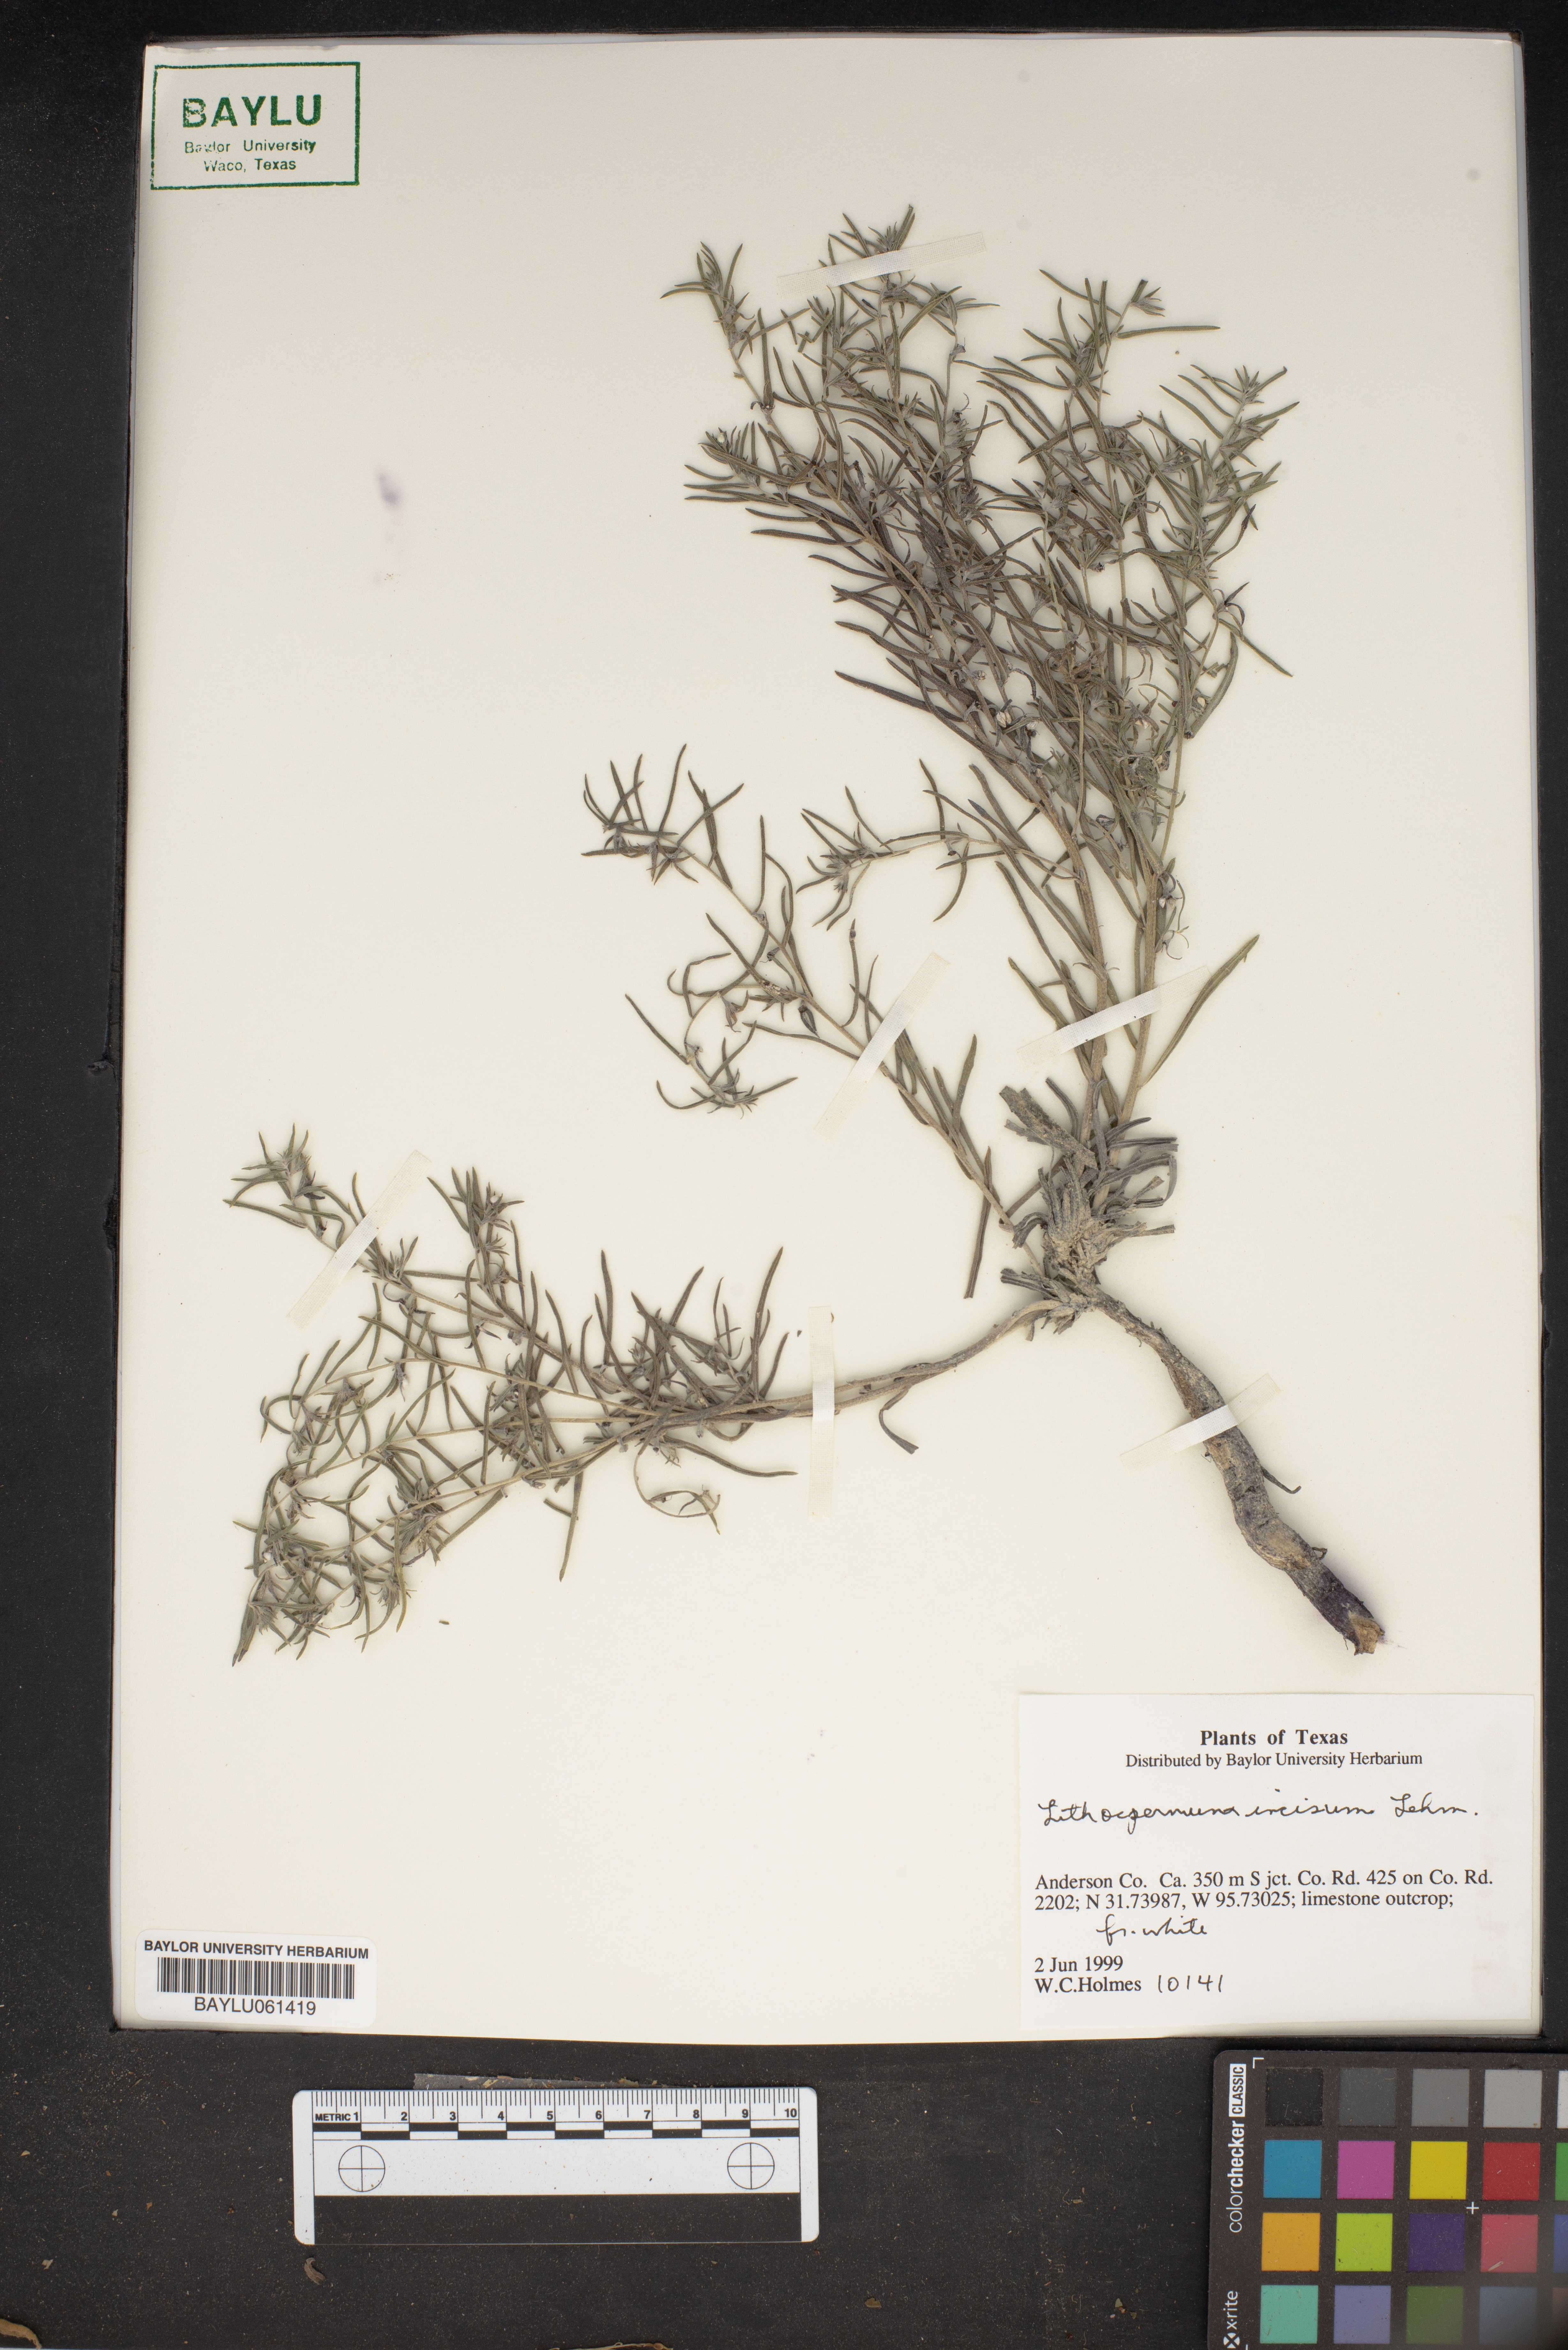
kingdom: Plantae
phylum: Tracheophyta
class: Magnoliopsida
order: Boraginales
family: Boraginaceae
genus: Lithospermum
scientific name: Lithospermum incisum
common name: Fringed gromwell
